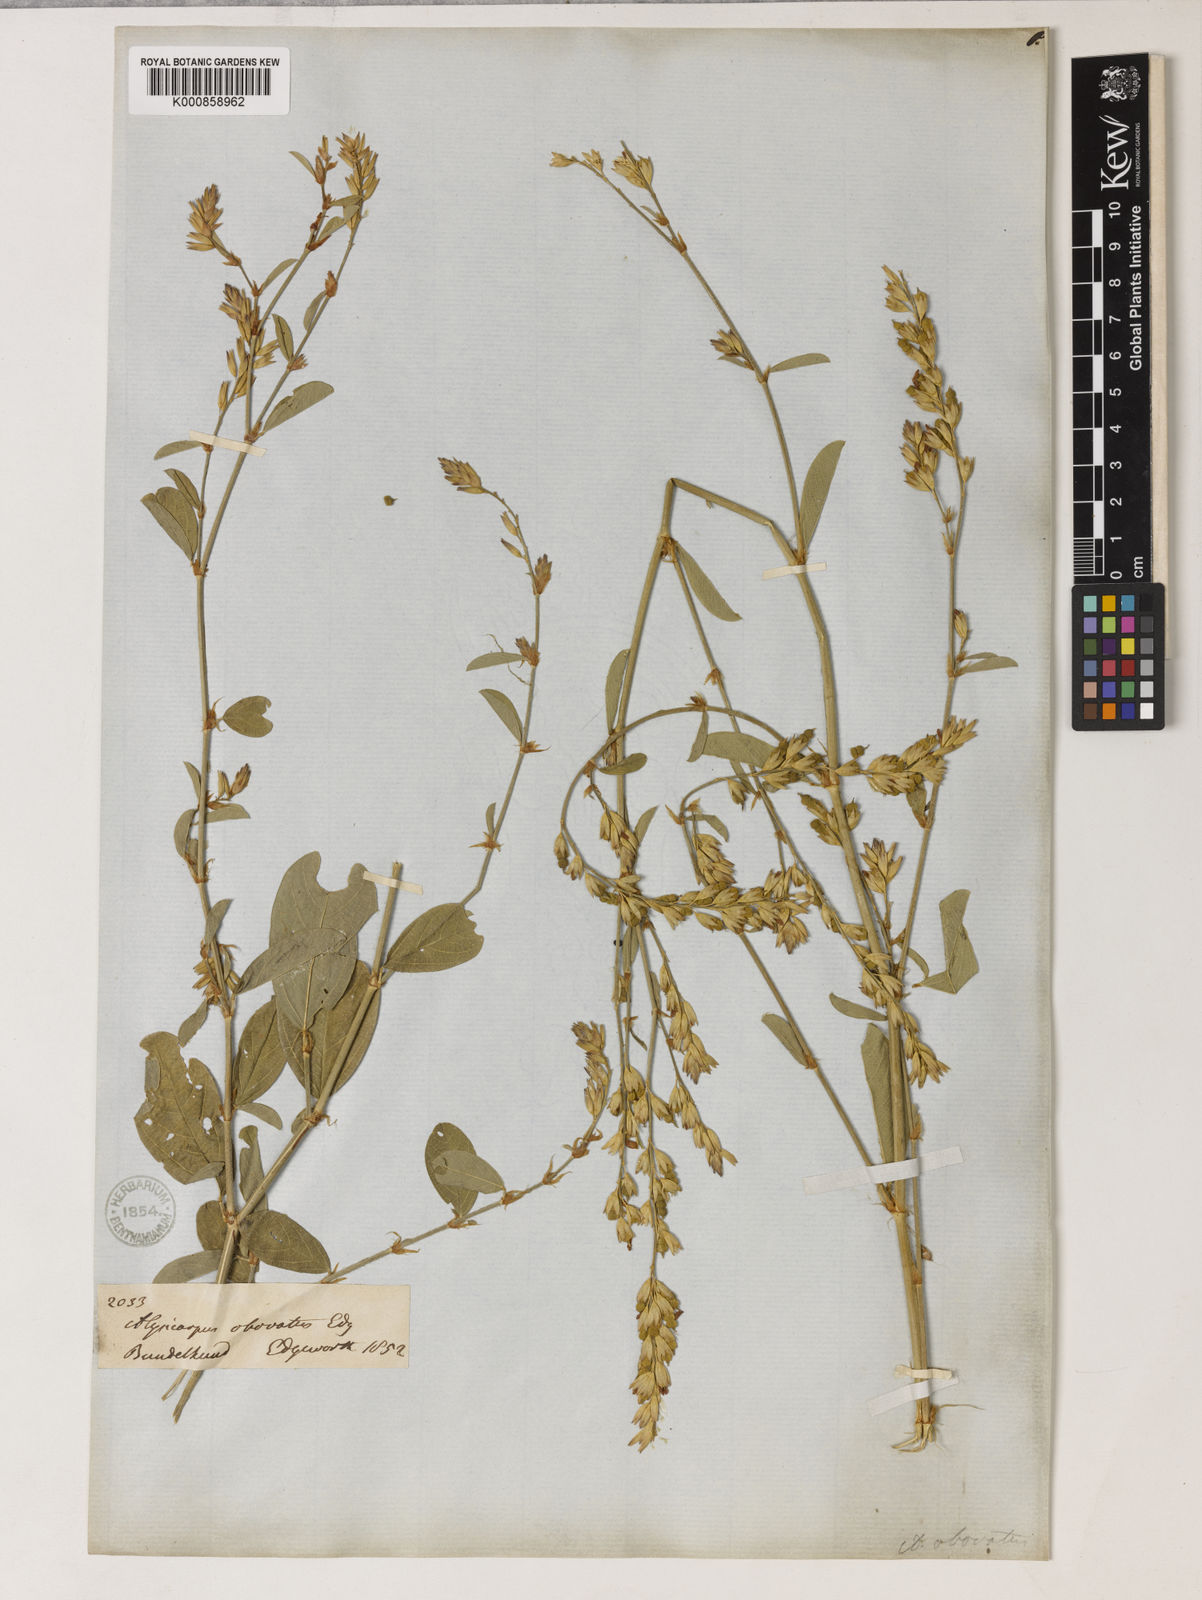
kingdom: Plantae
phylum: Tracheophyta
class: Magnoliopsida
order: Fabales
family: Fabaceae
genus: Alysicarpus
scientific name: Alysicarpus heyneanus
